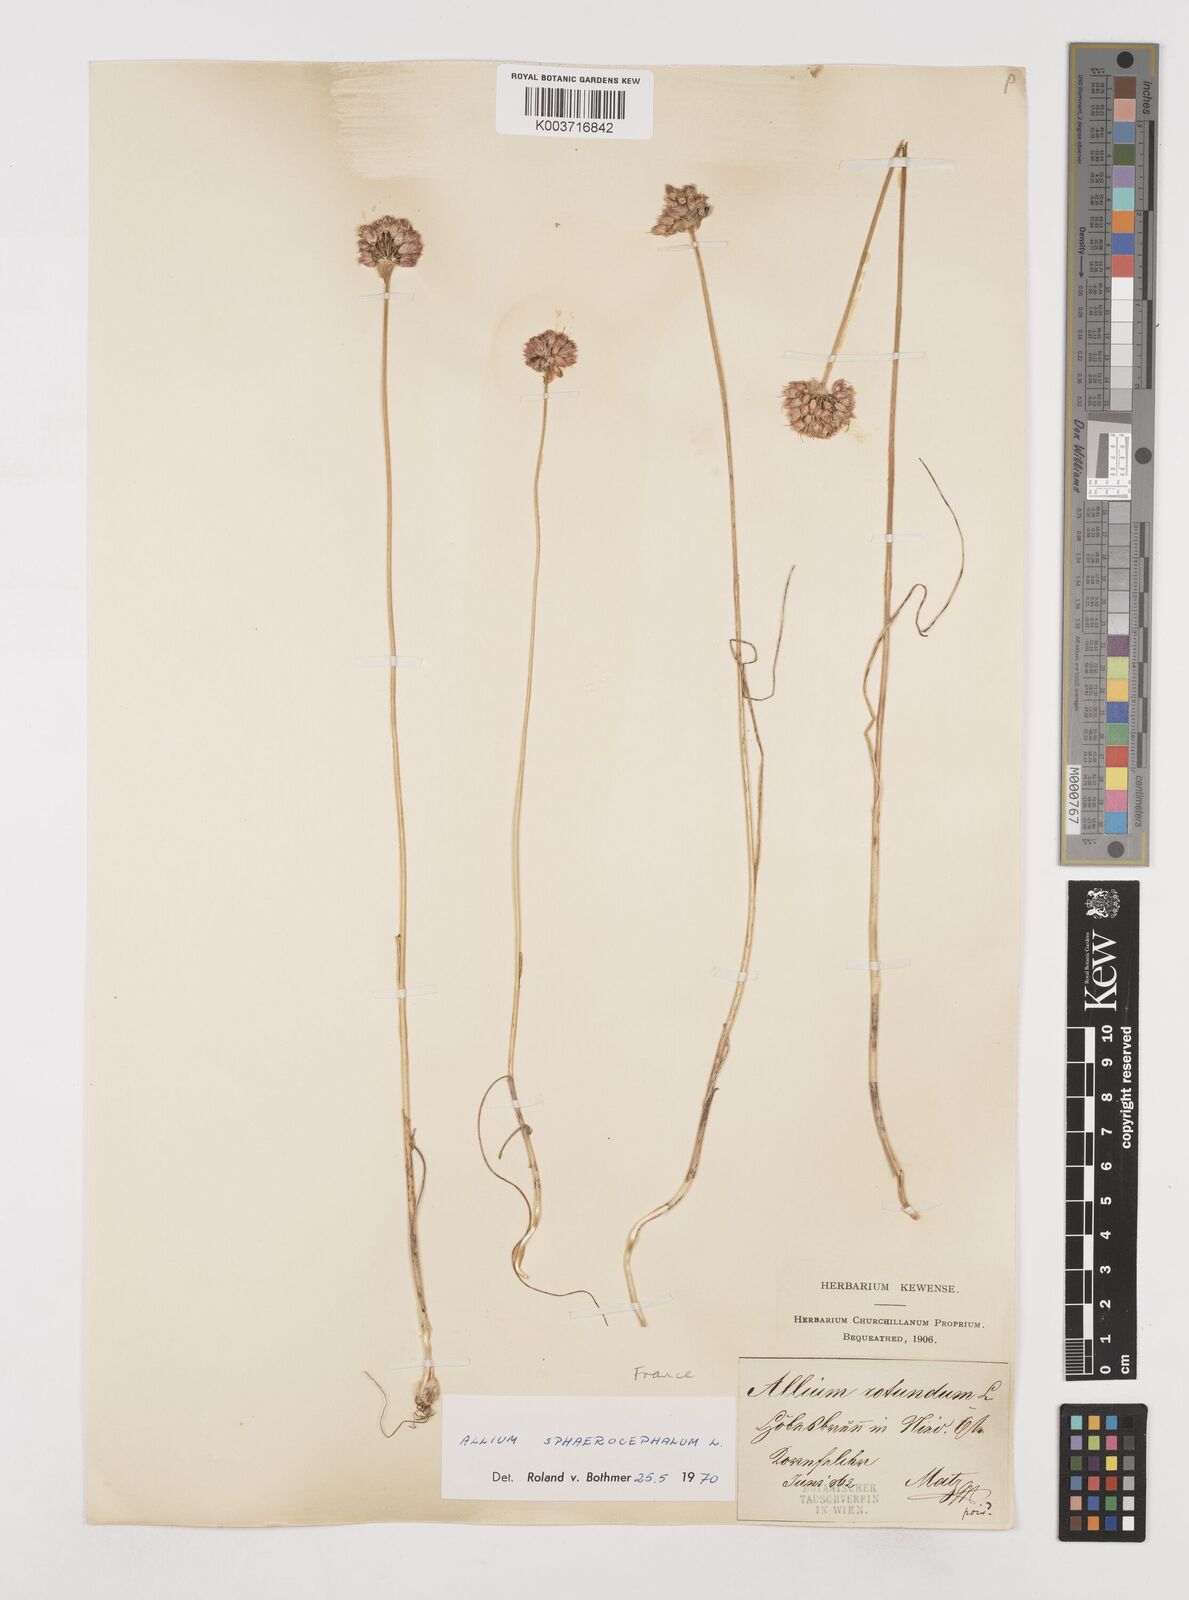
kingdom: Plantae
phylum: Tracheophyta
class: Liliopsida
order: Asparagales
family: Amaryllidaceae
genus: Allium
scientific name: Allium sphaerocephalon
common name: Round-headed leek
